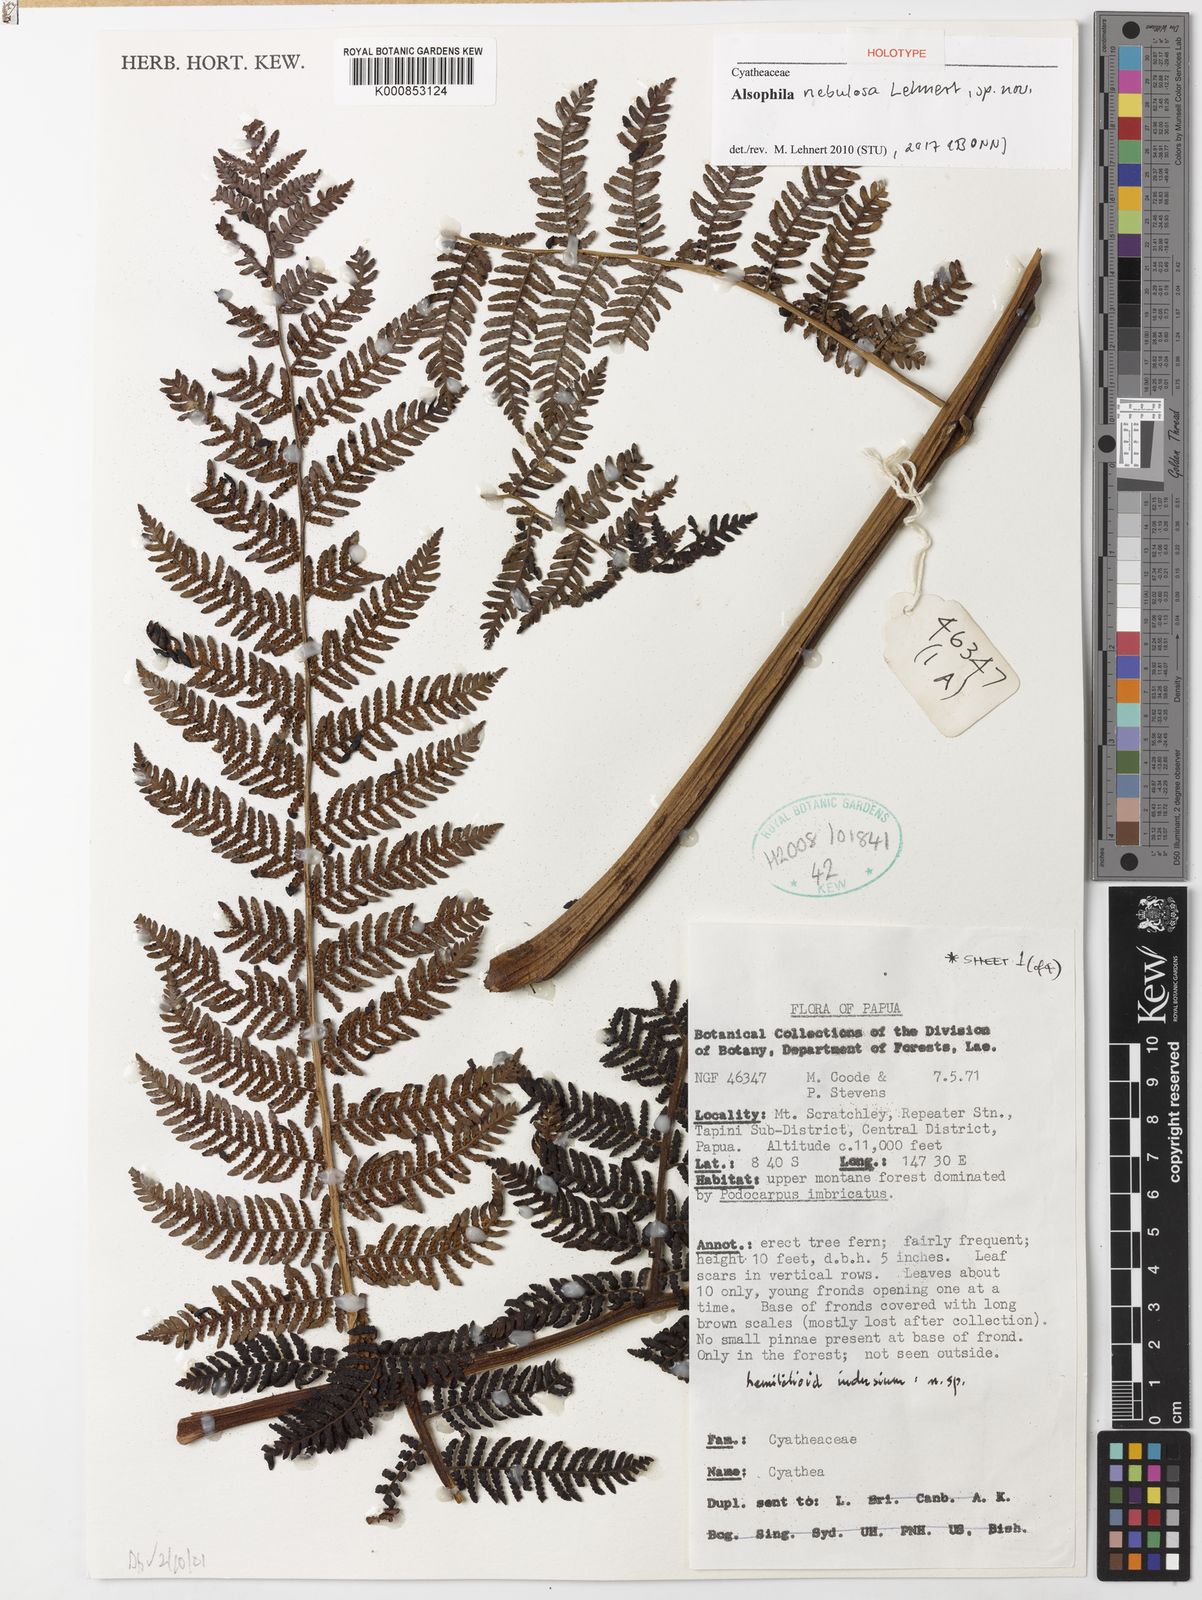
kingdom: Plantae
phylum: Tracheophyta
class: Polypodiopsida
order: Cyatheales
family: Cyatheaceae
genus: Alsophila
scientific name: Alsophila nebulosa
